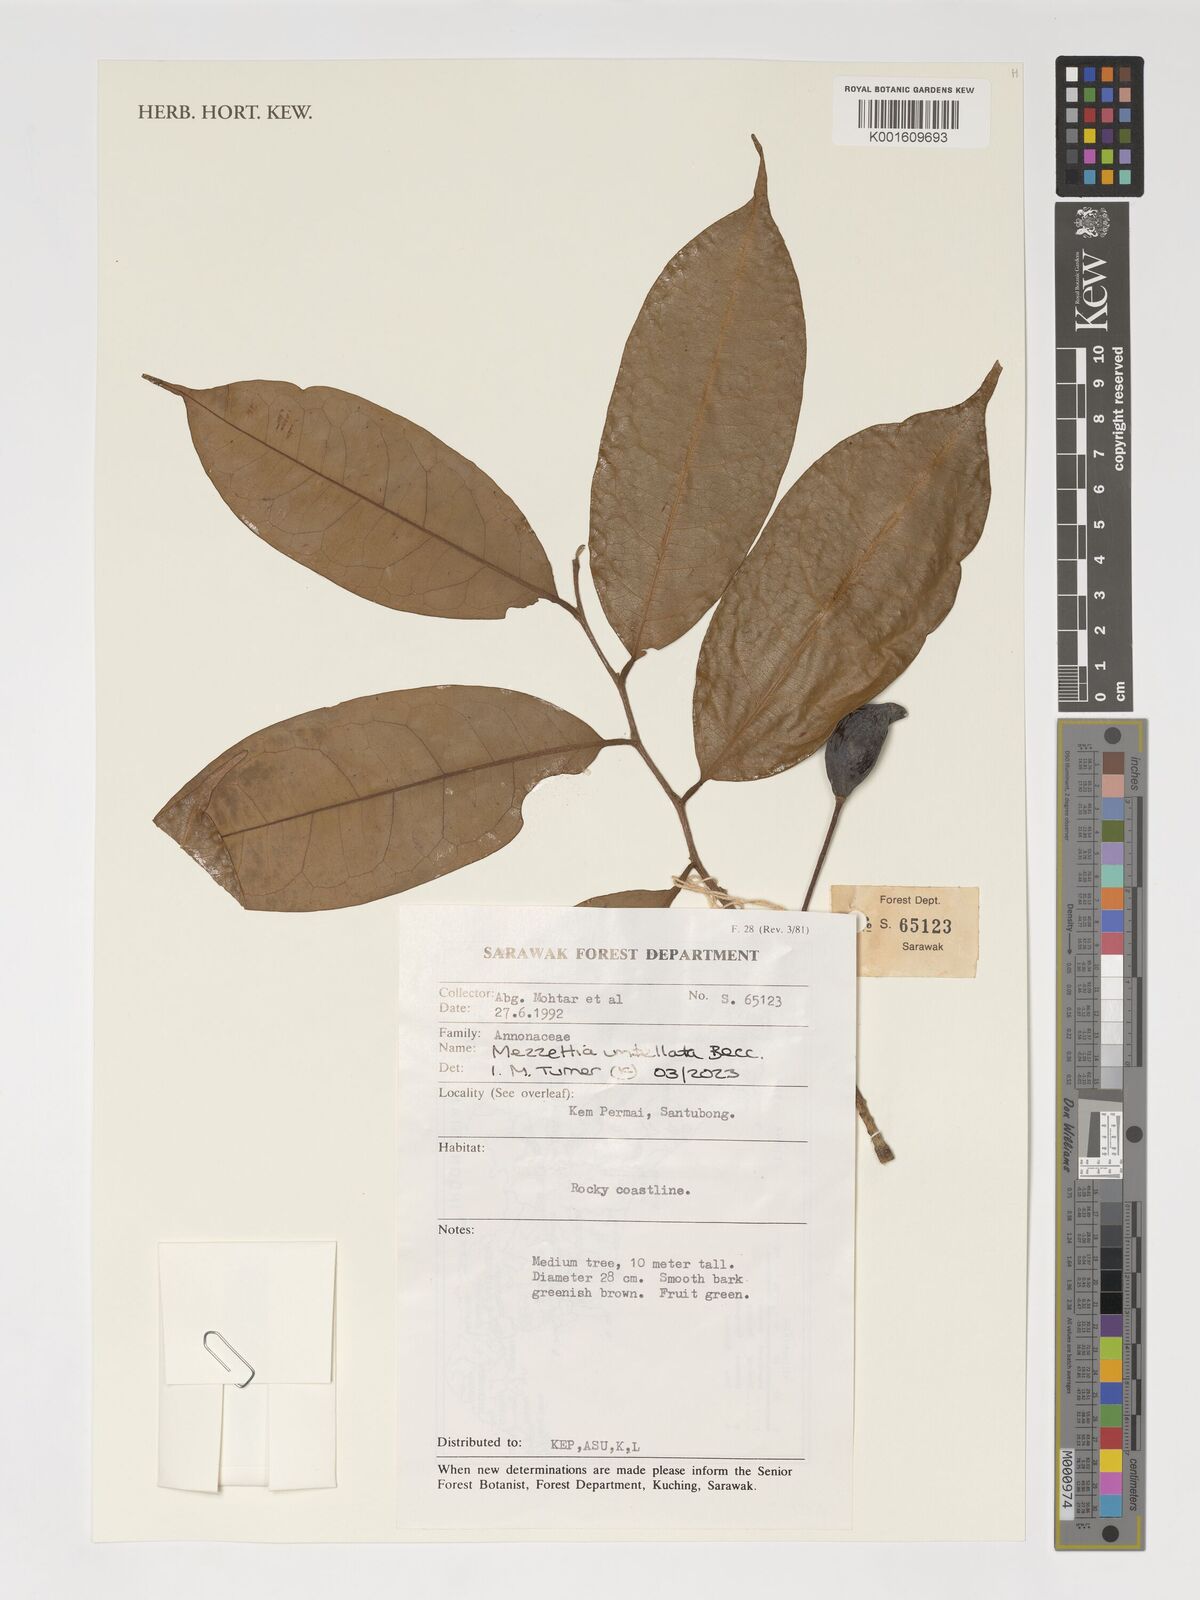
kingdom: Plantae
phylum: Tracheophyta
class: Magnoliopsida
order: Magnoliales
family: Annonaceae
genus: Mezzettia
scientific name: Mezzettia umbellata
